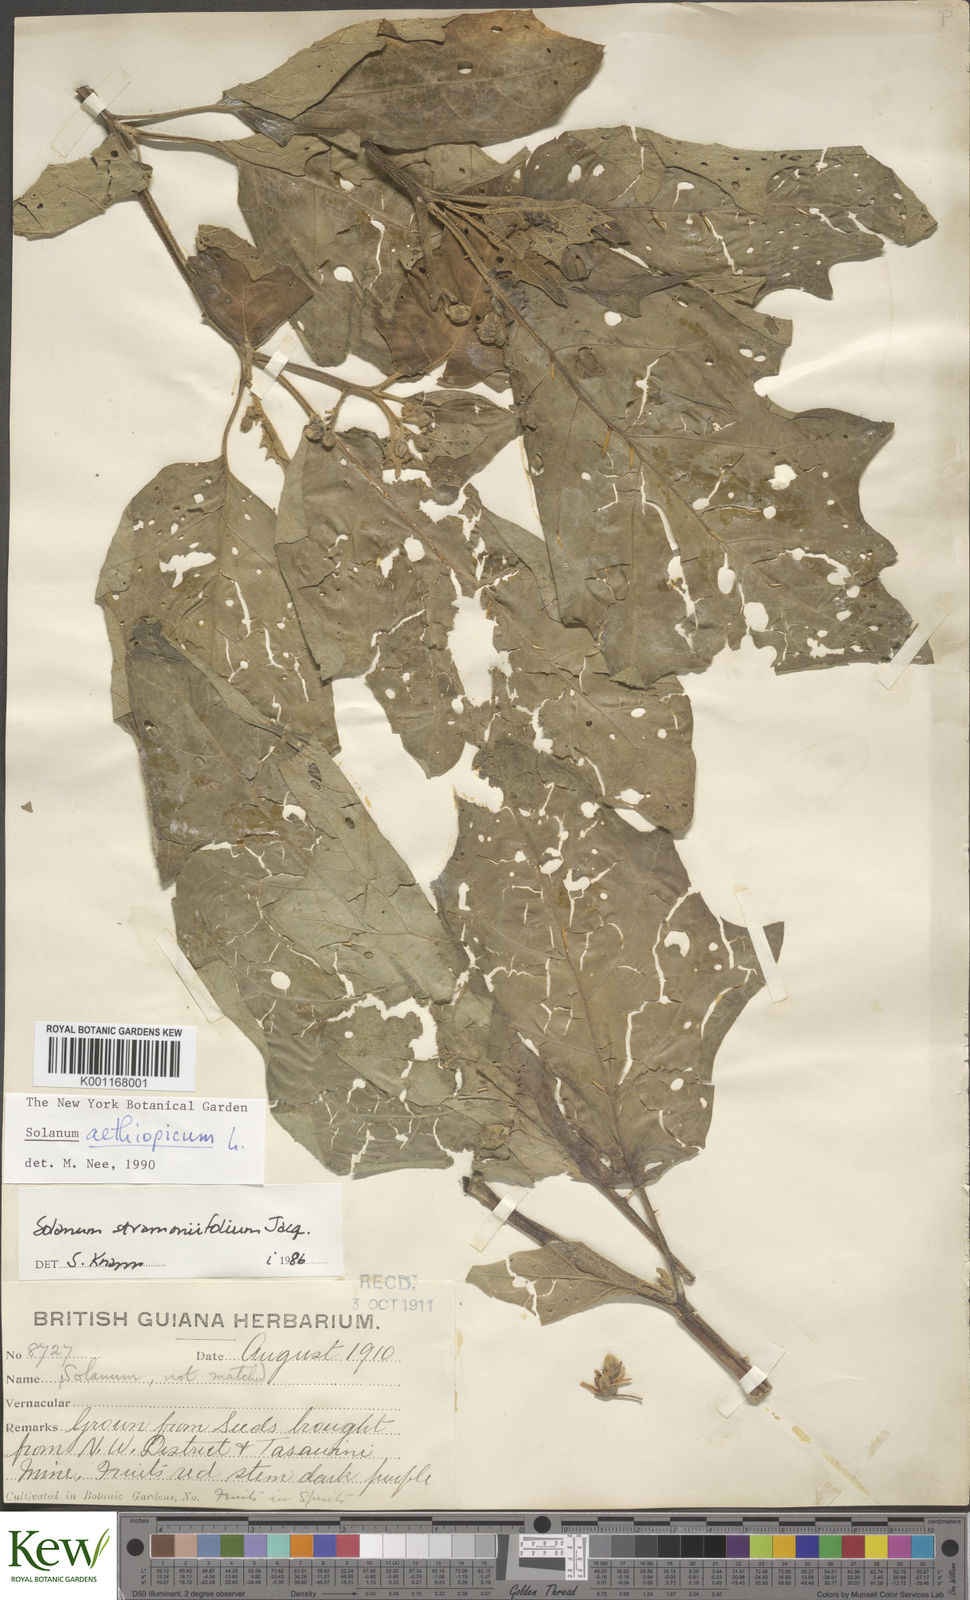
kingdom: Plantae
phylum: Tracheophyta
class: Magnoliopsida
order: Solanales
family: Solanaceae
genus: Solanum
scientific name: Solanum aethiopicum
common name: Gilo
